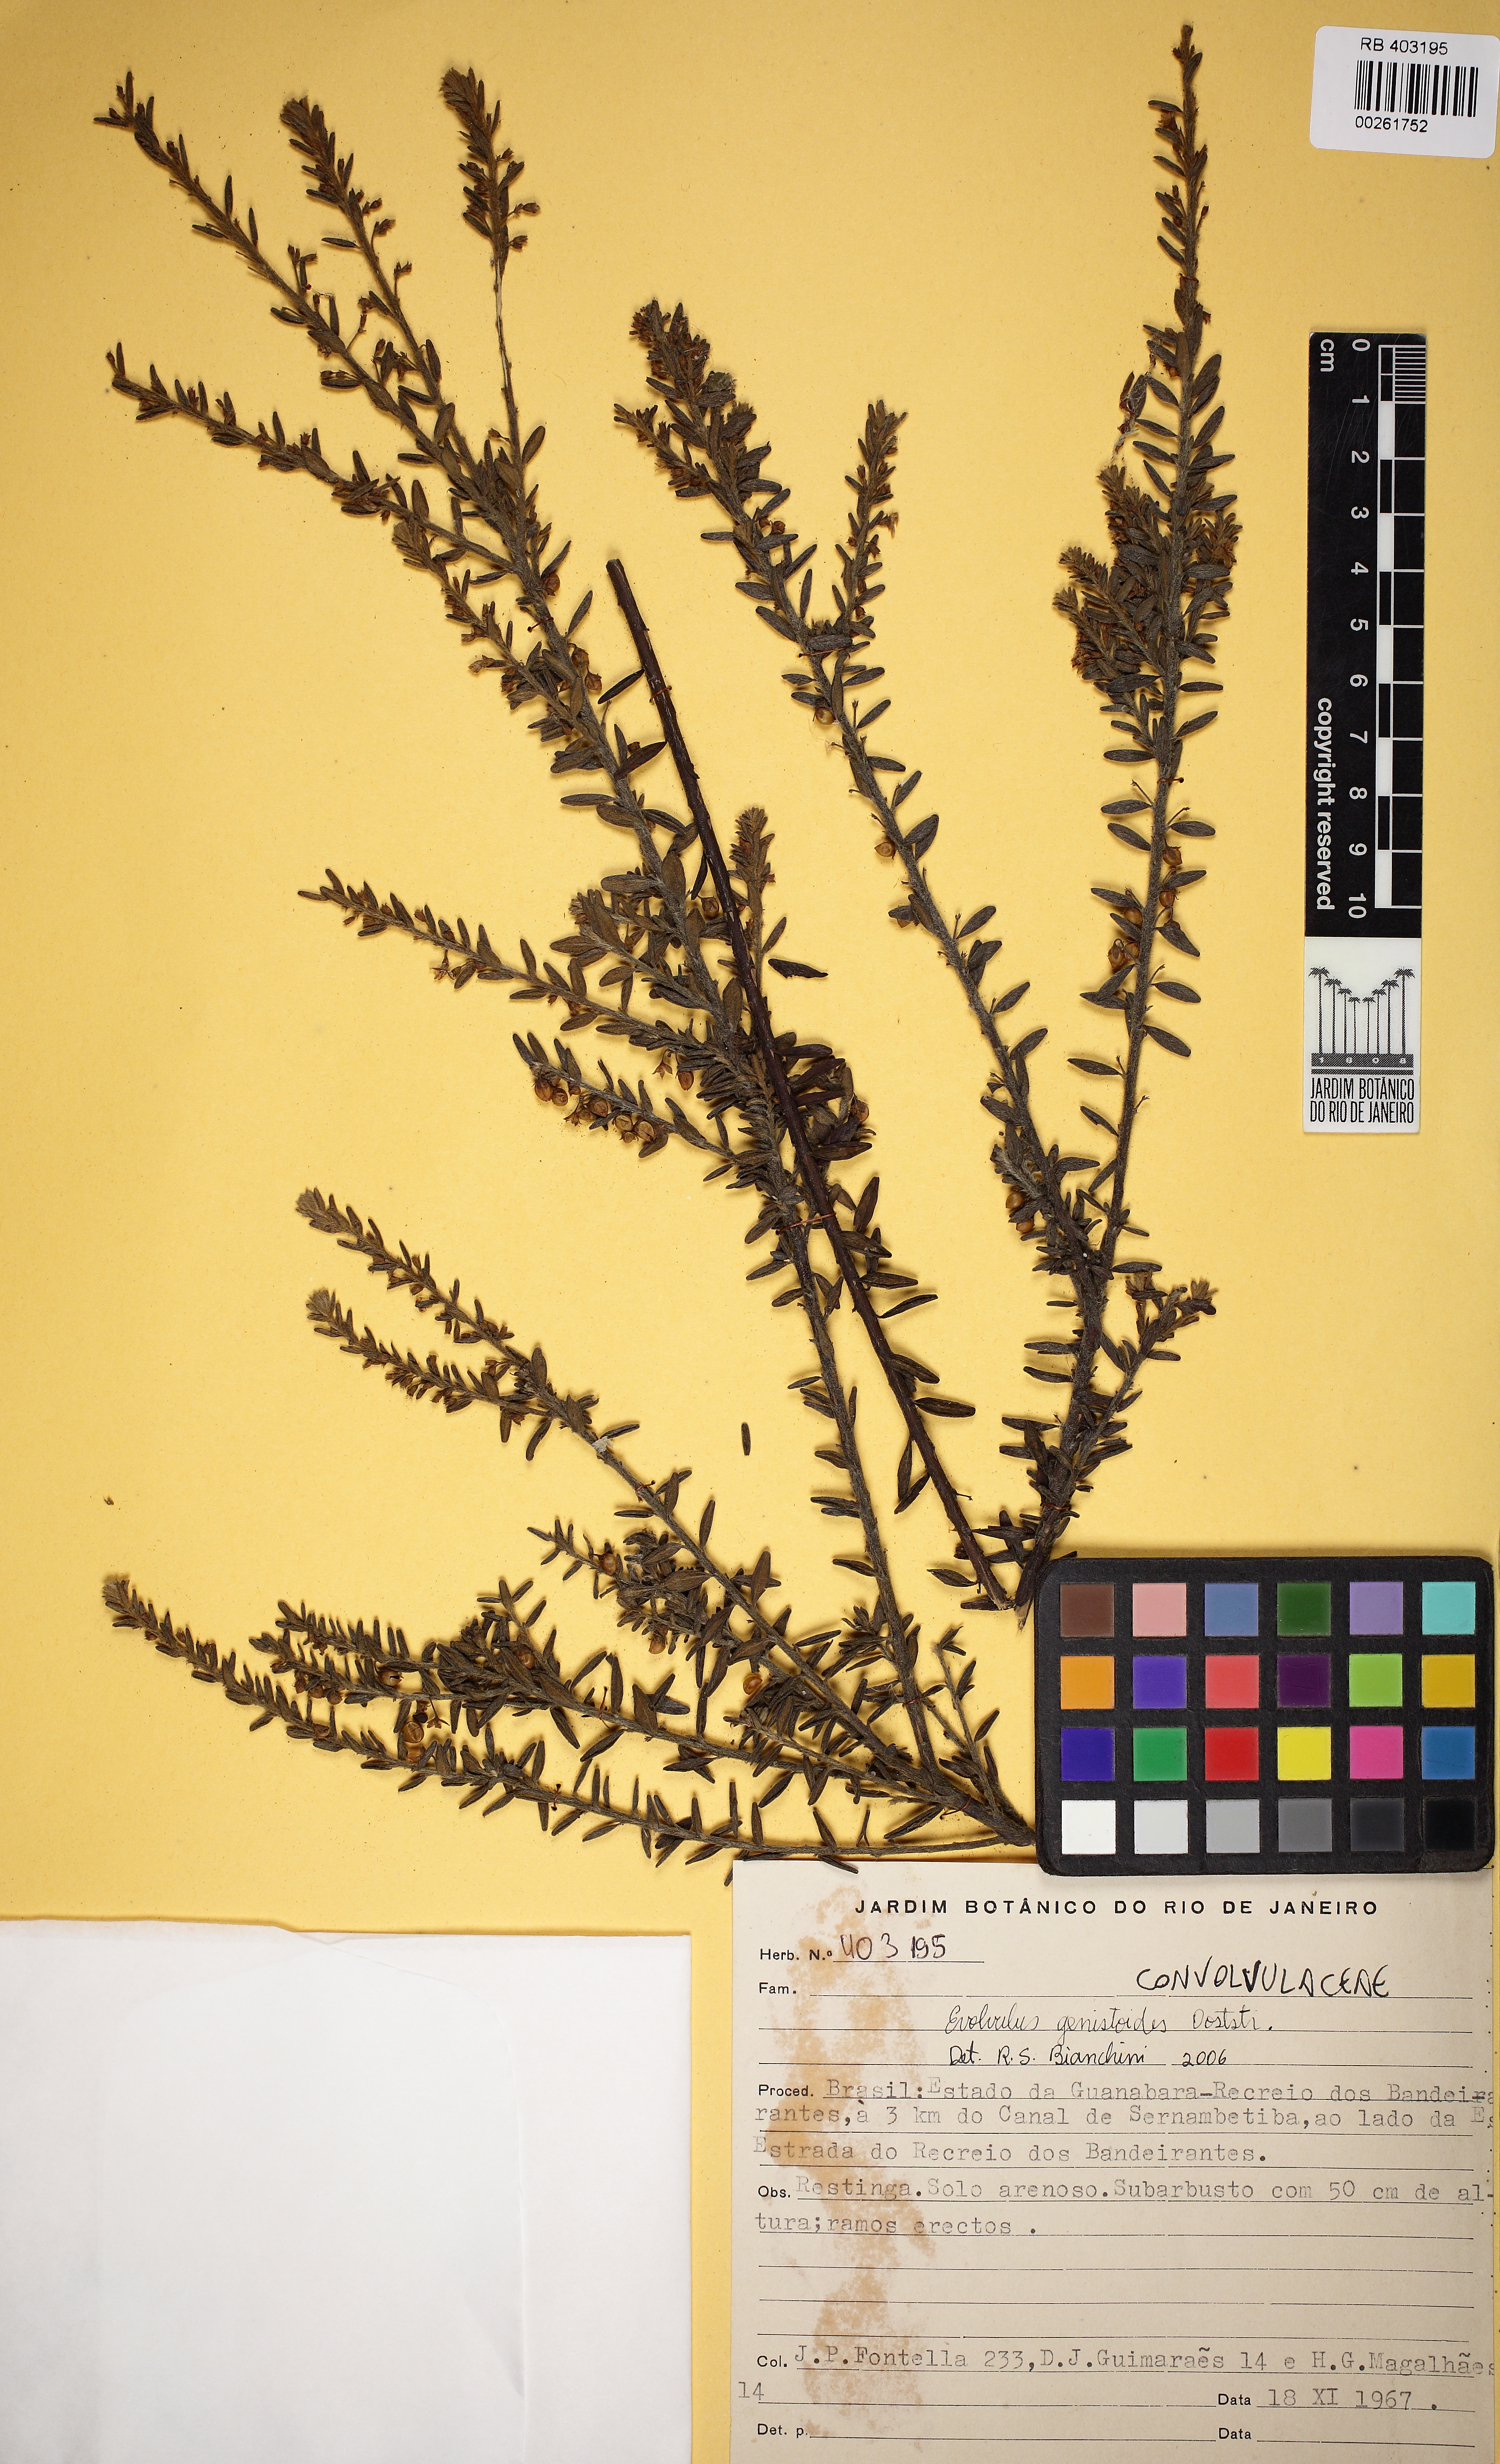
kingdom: Plantae
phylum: Tracheophyta
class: Magnoliopsida
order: Solanales
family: Convolvulaceae
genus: Evolvulus
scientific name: Evolvulus genistoides
